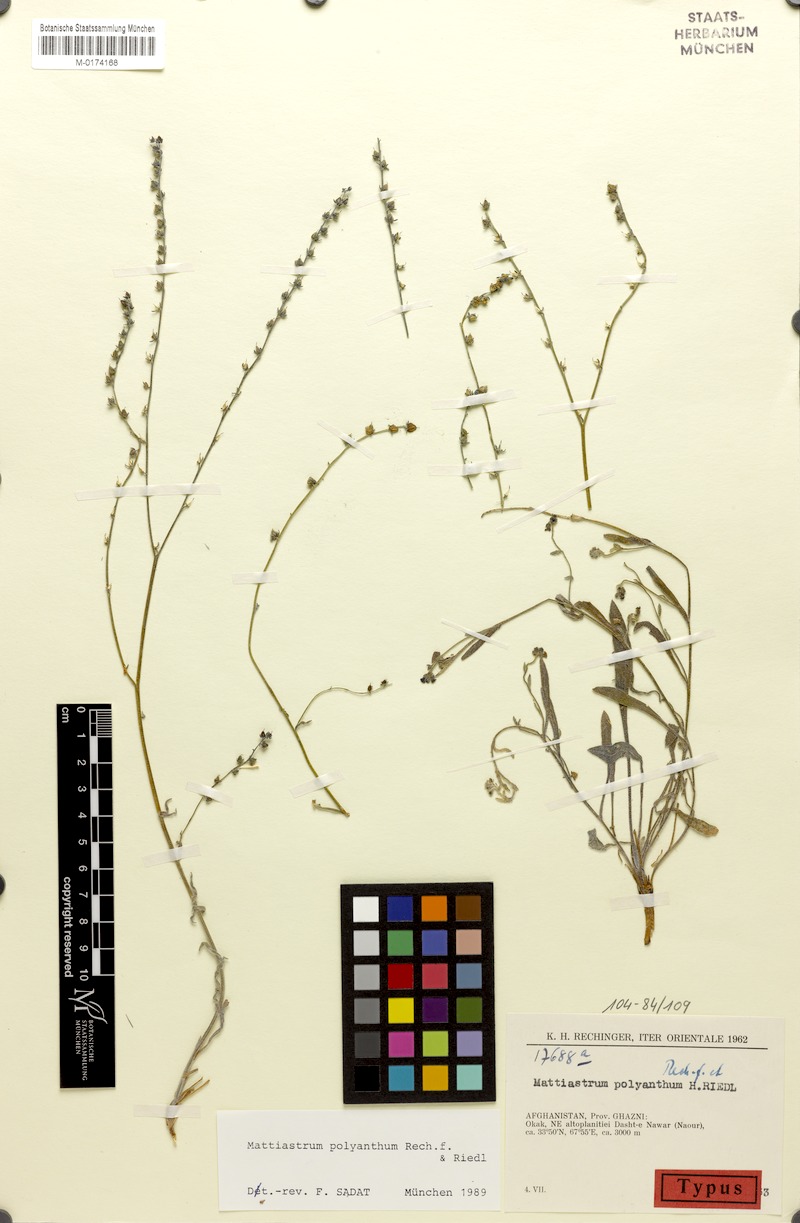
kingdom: Plantae
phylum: Tracheophyta
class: Magnoliopsida
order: Boraginales
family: Boraginaceae
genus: Paracaryum
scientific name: Paracaryum polyanthum
